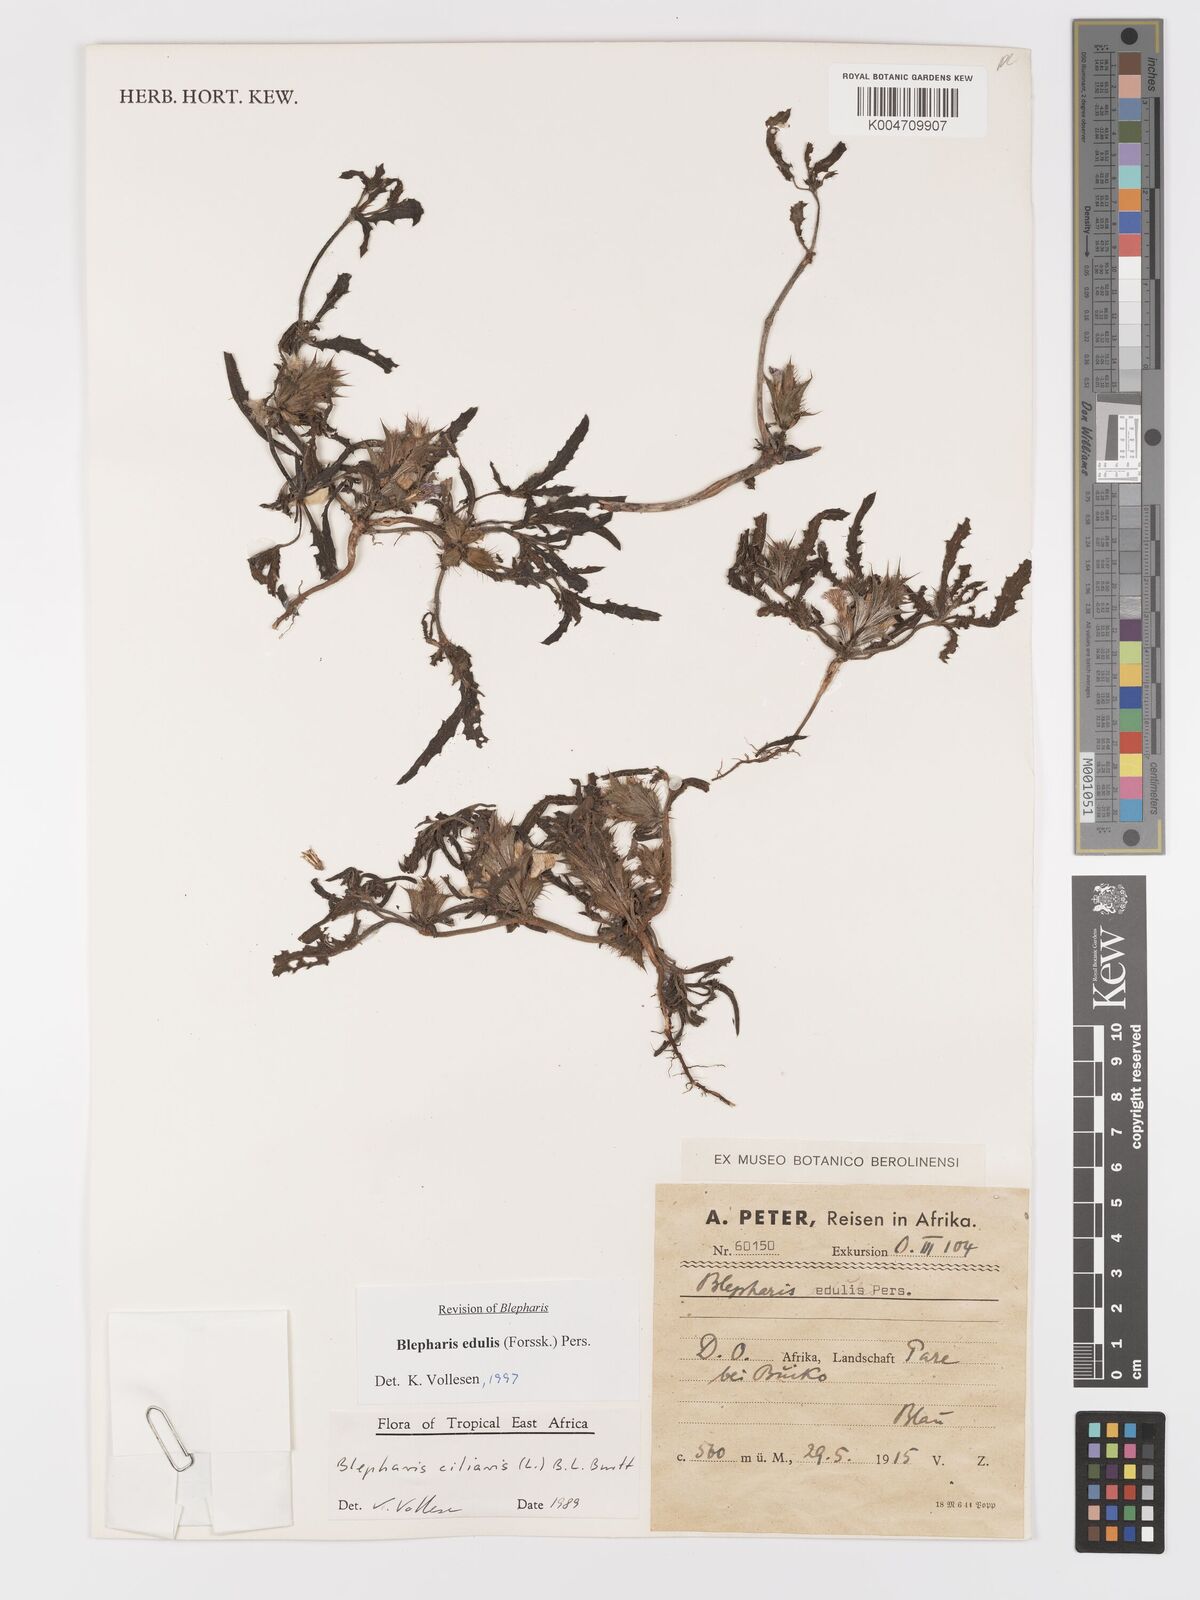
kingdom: Plantae
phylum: Tracheophyta
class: Magnoliopsida
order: Lamiales
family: Acanthaceae
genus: Blepharis
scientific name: Blepharis edulis
